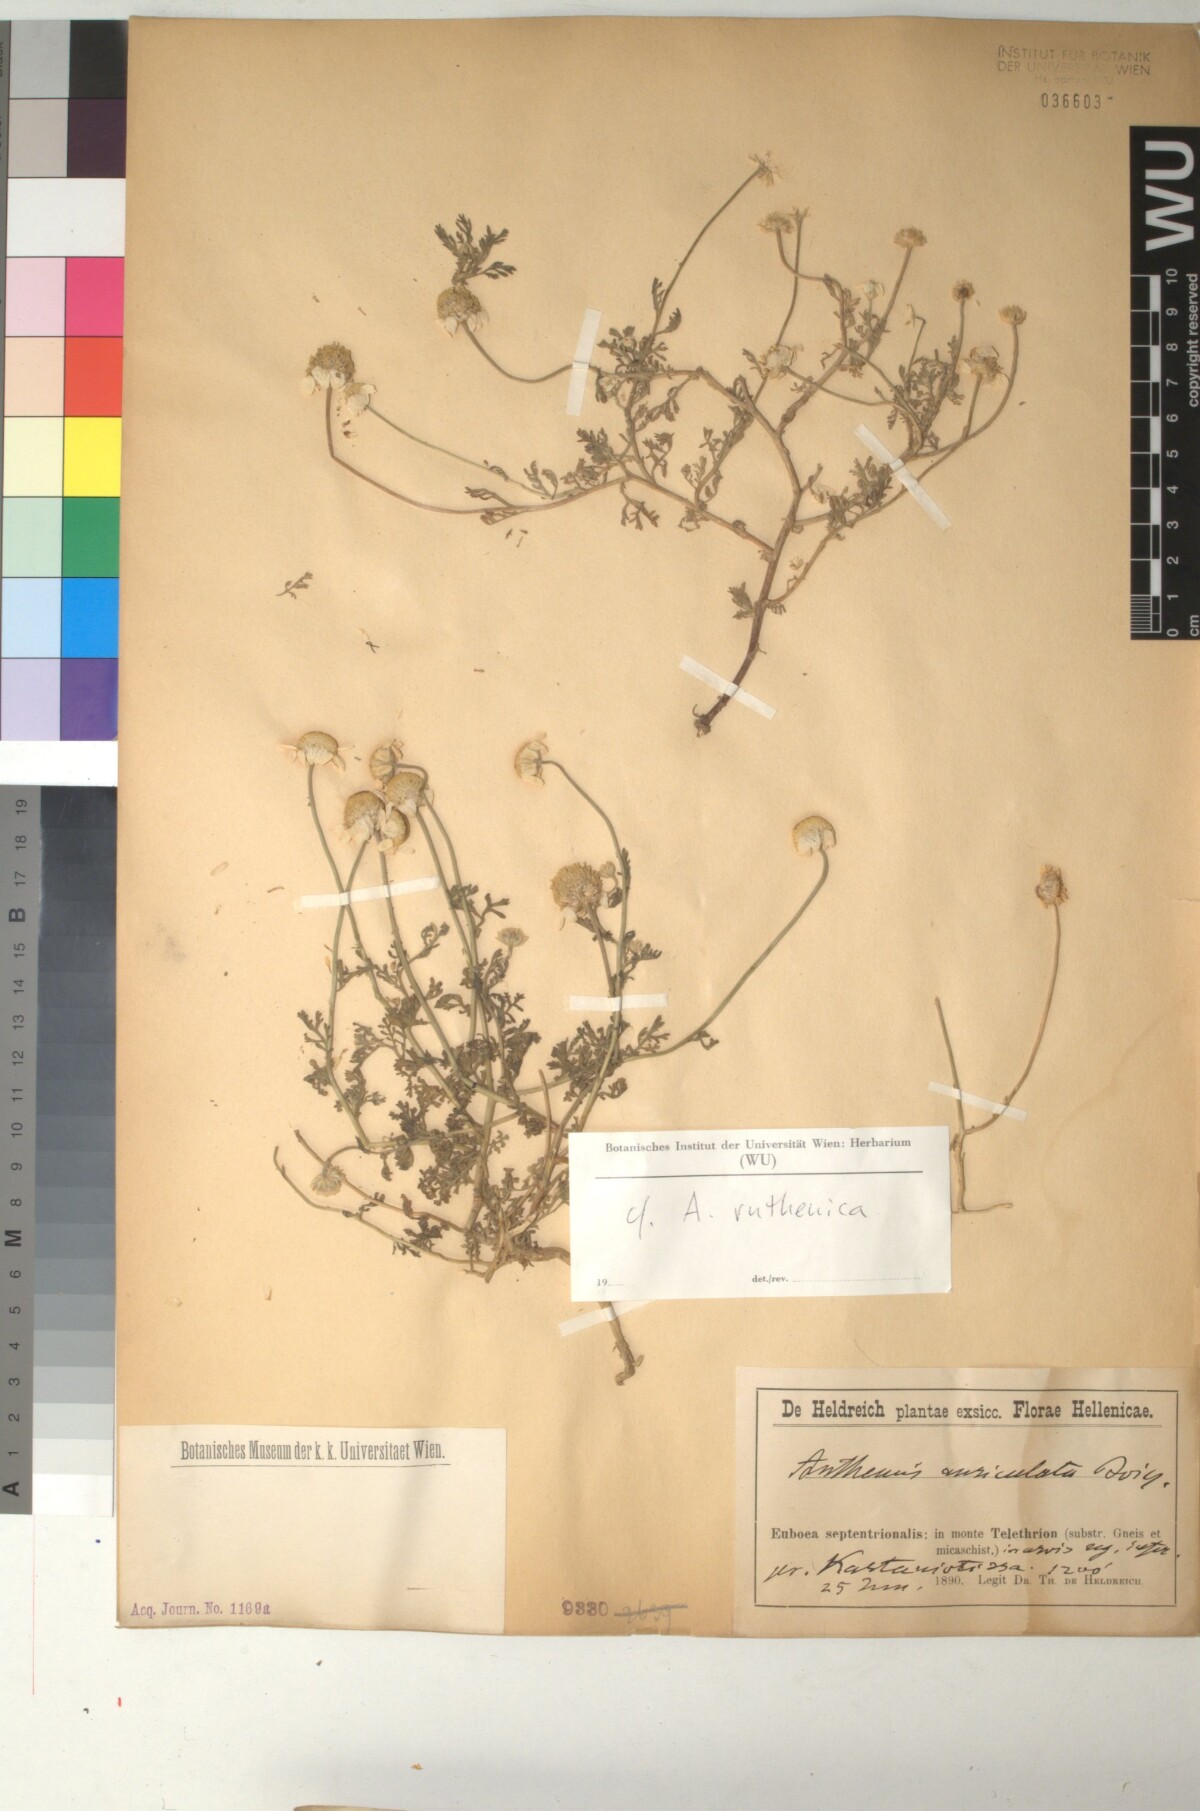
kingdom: Plantae
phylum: Tracheophyta
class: Magnoliopsida
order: Asterales
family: Asteraceae
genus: Anthemis
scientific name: Anthemis
